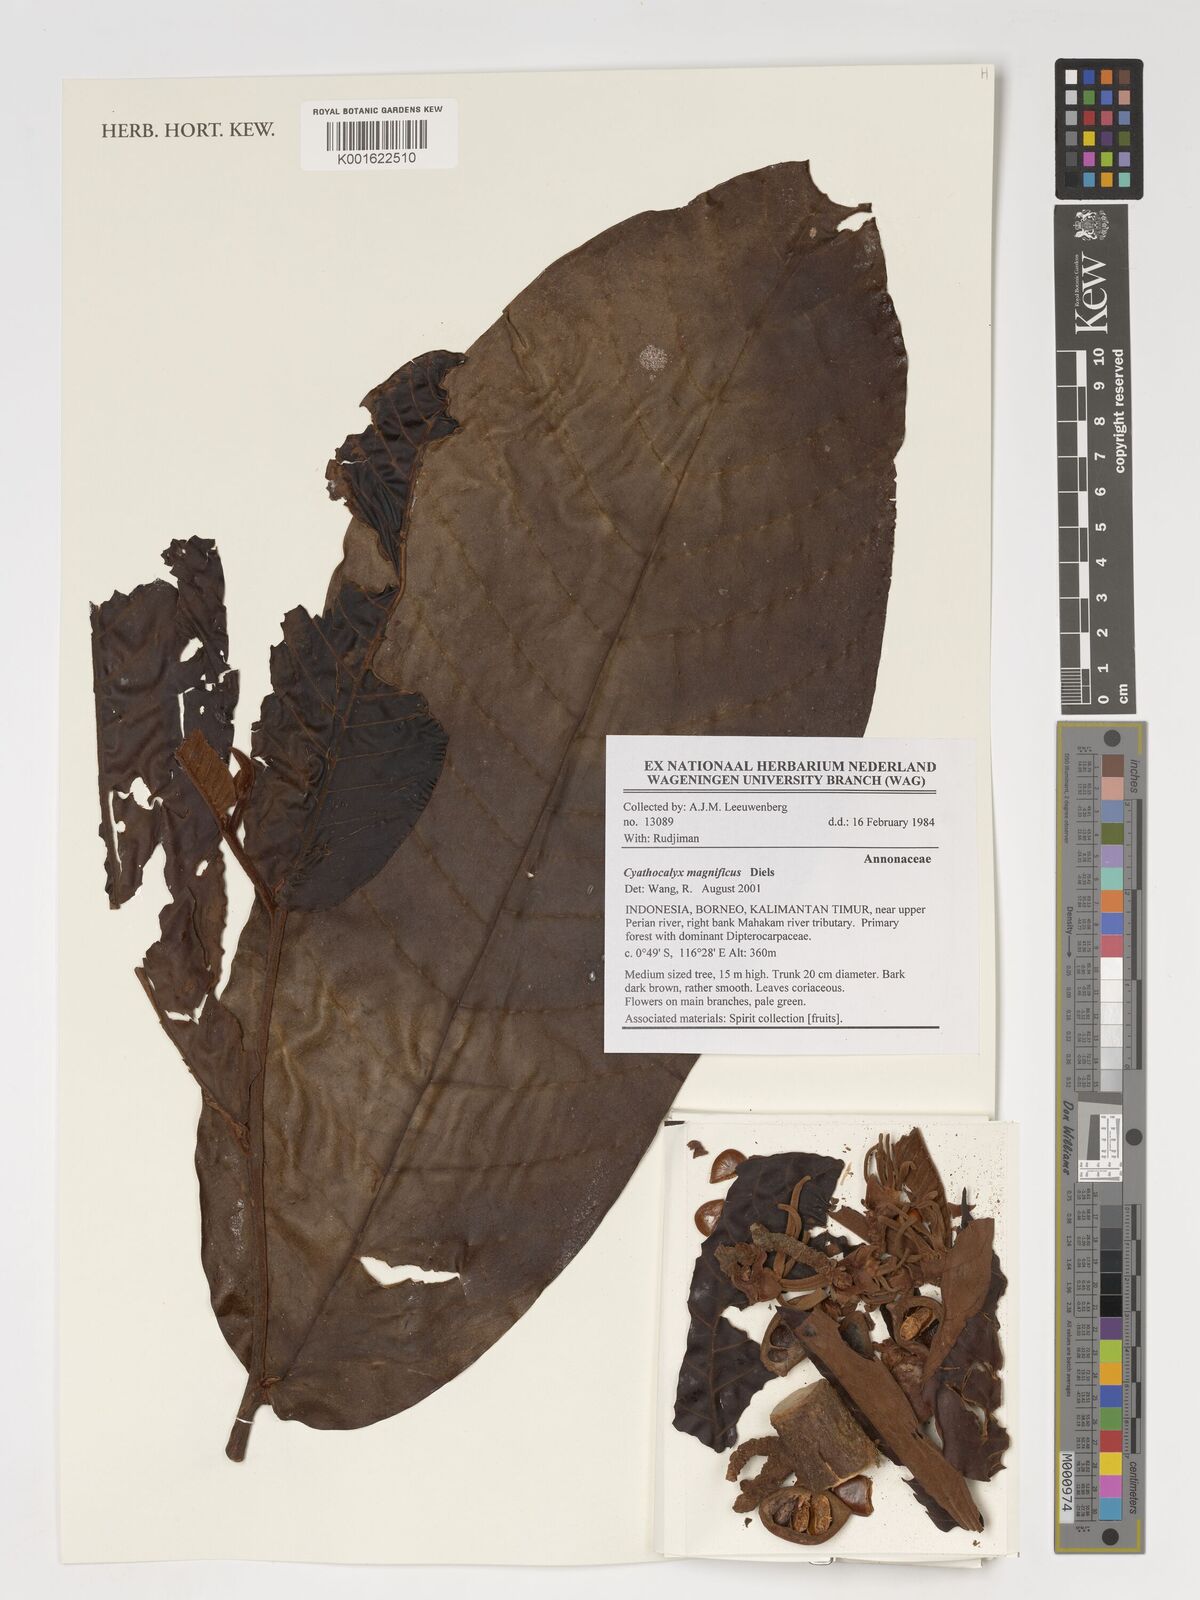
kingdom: Plantae
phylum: Tracheophyta
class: Magnoliopsida
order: Magnoliales
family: Annonaceae
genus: Drepananthus
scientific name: Drepananthus magnificus
